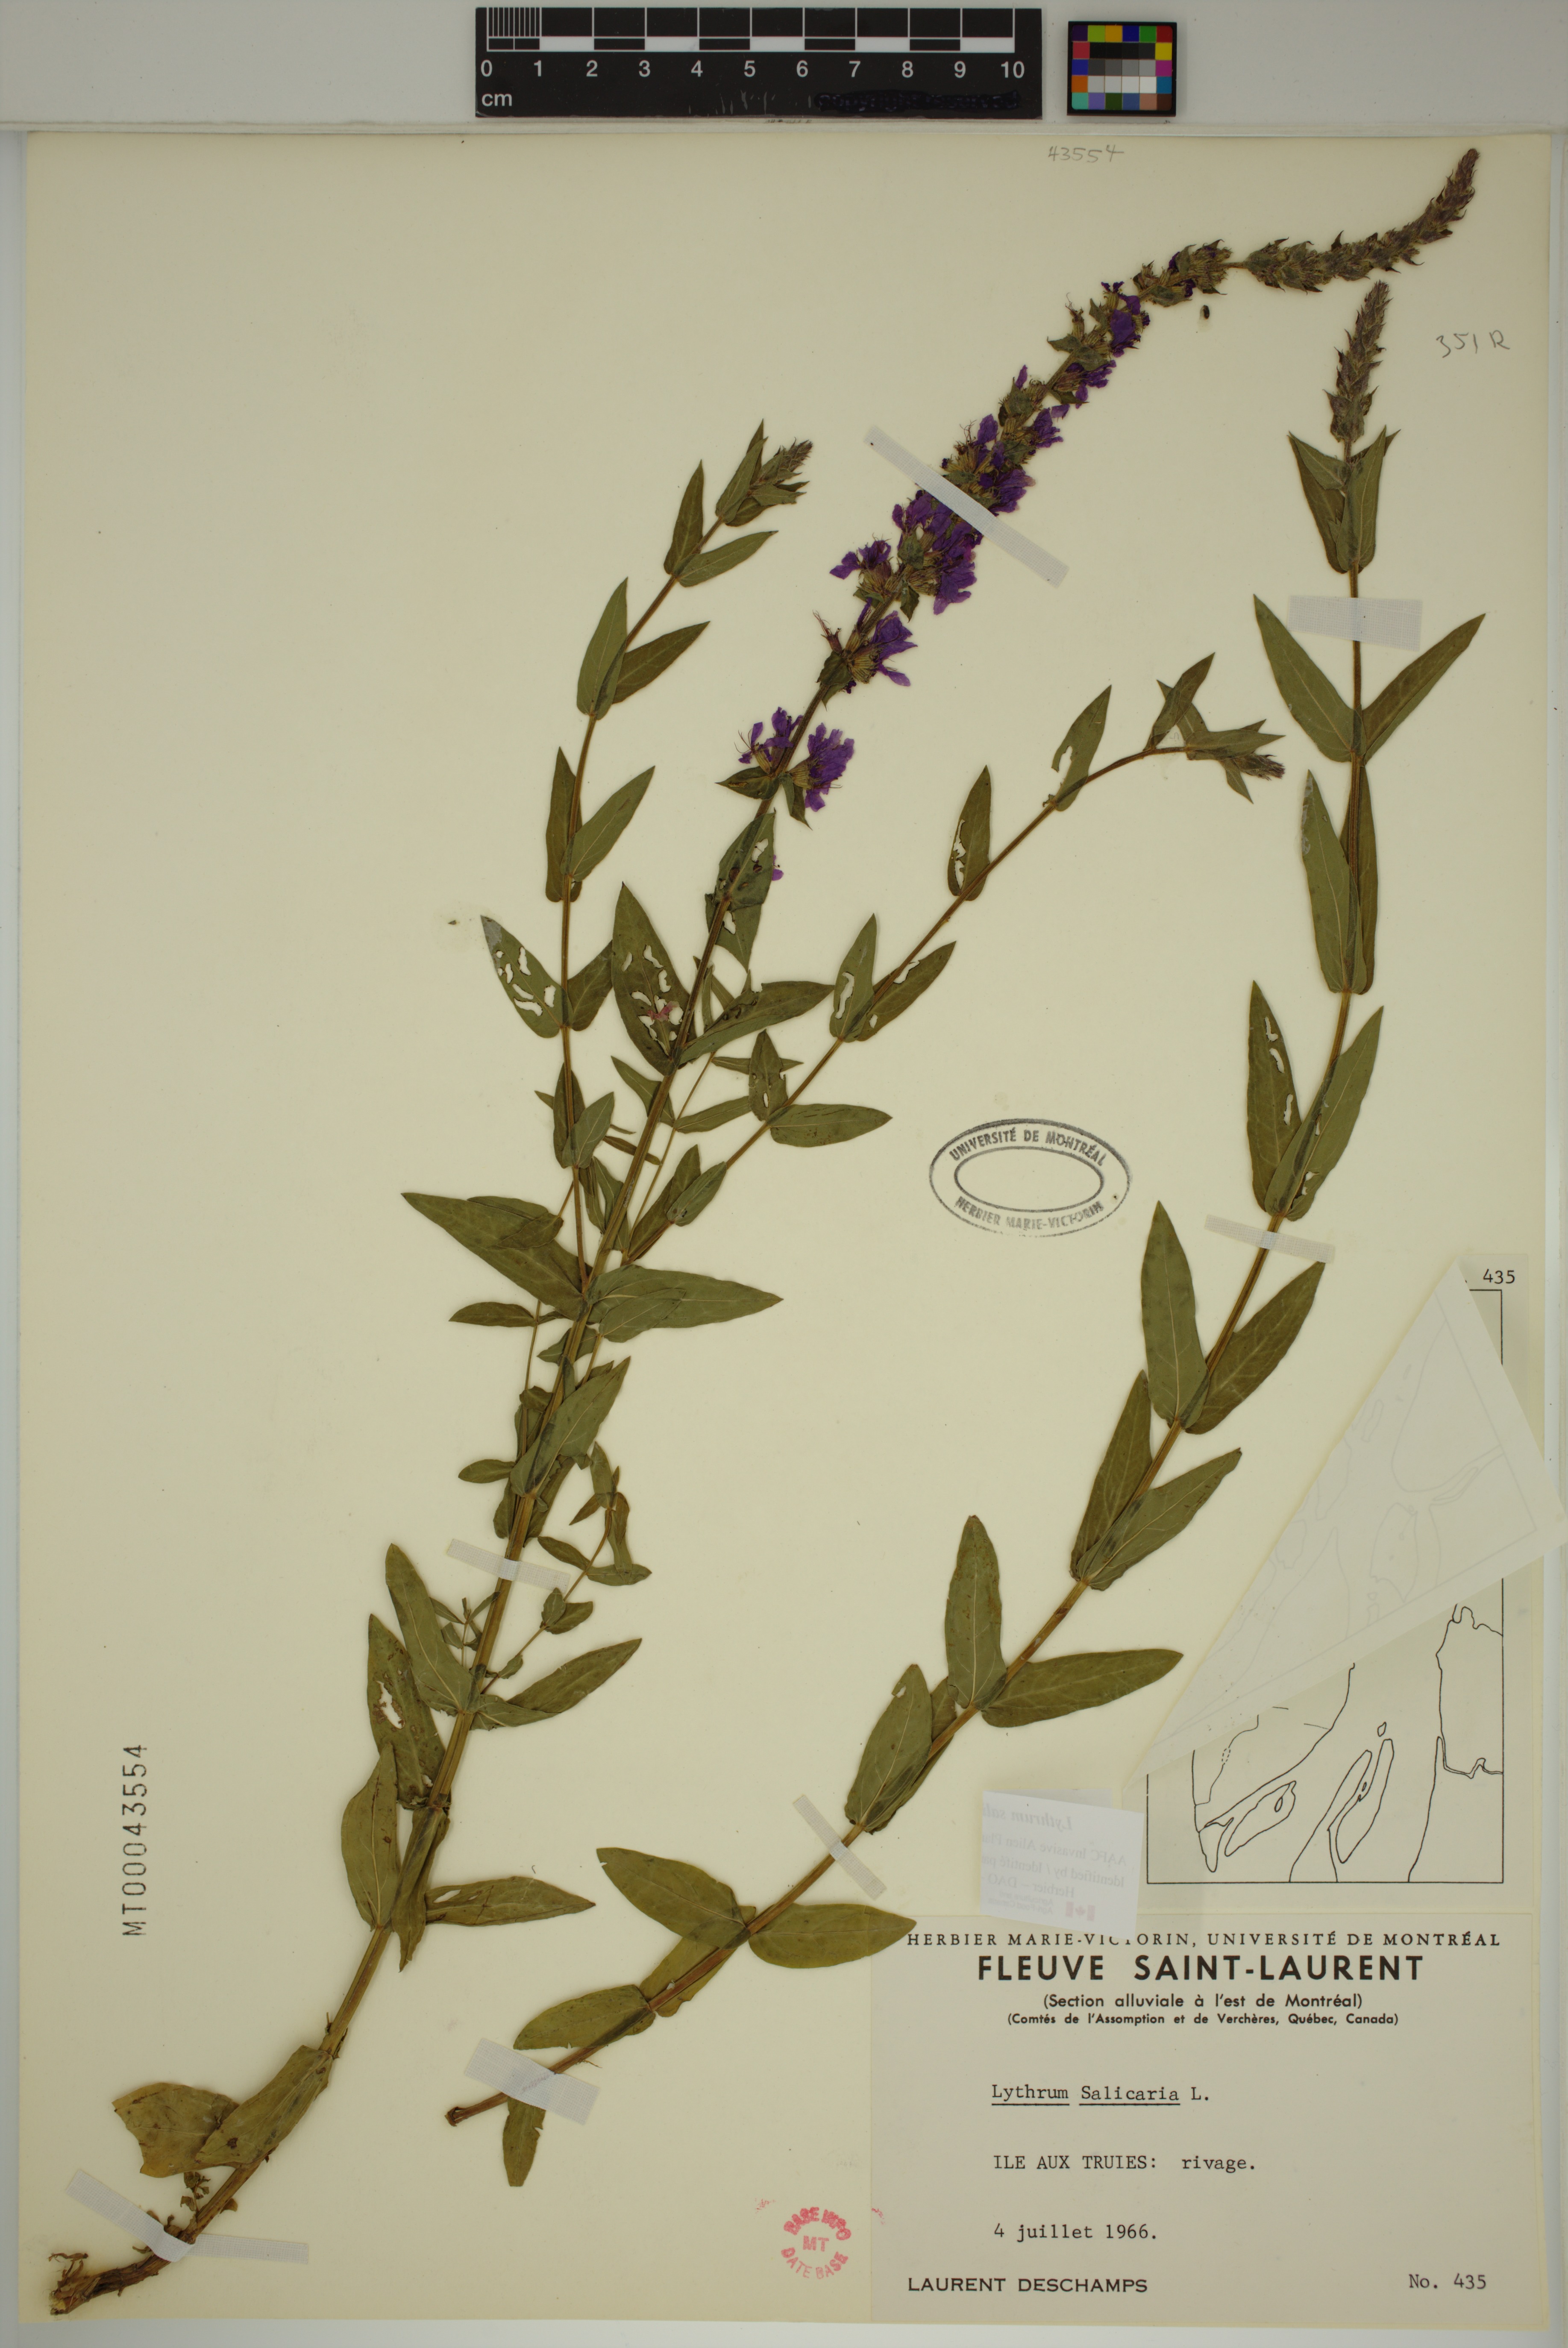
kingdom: Plantae
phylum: Tracheophyta
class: Magnoliopsida
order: Myrtales
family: Lythraceae
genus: Lythrum
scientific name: Lythrum salicaria
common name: Purple loosestrife
